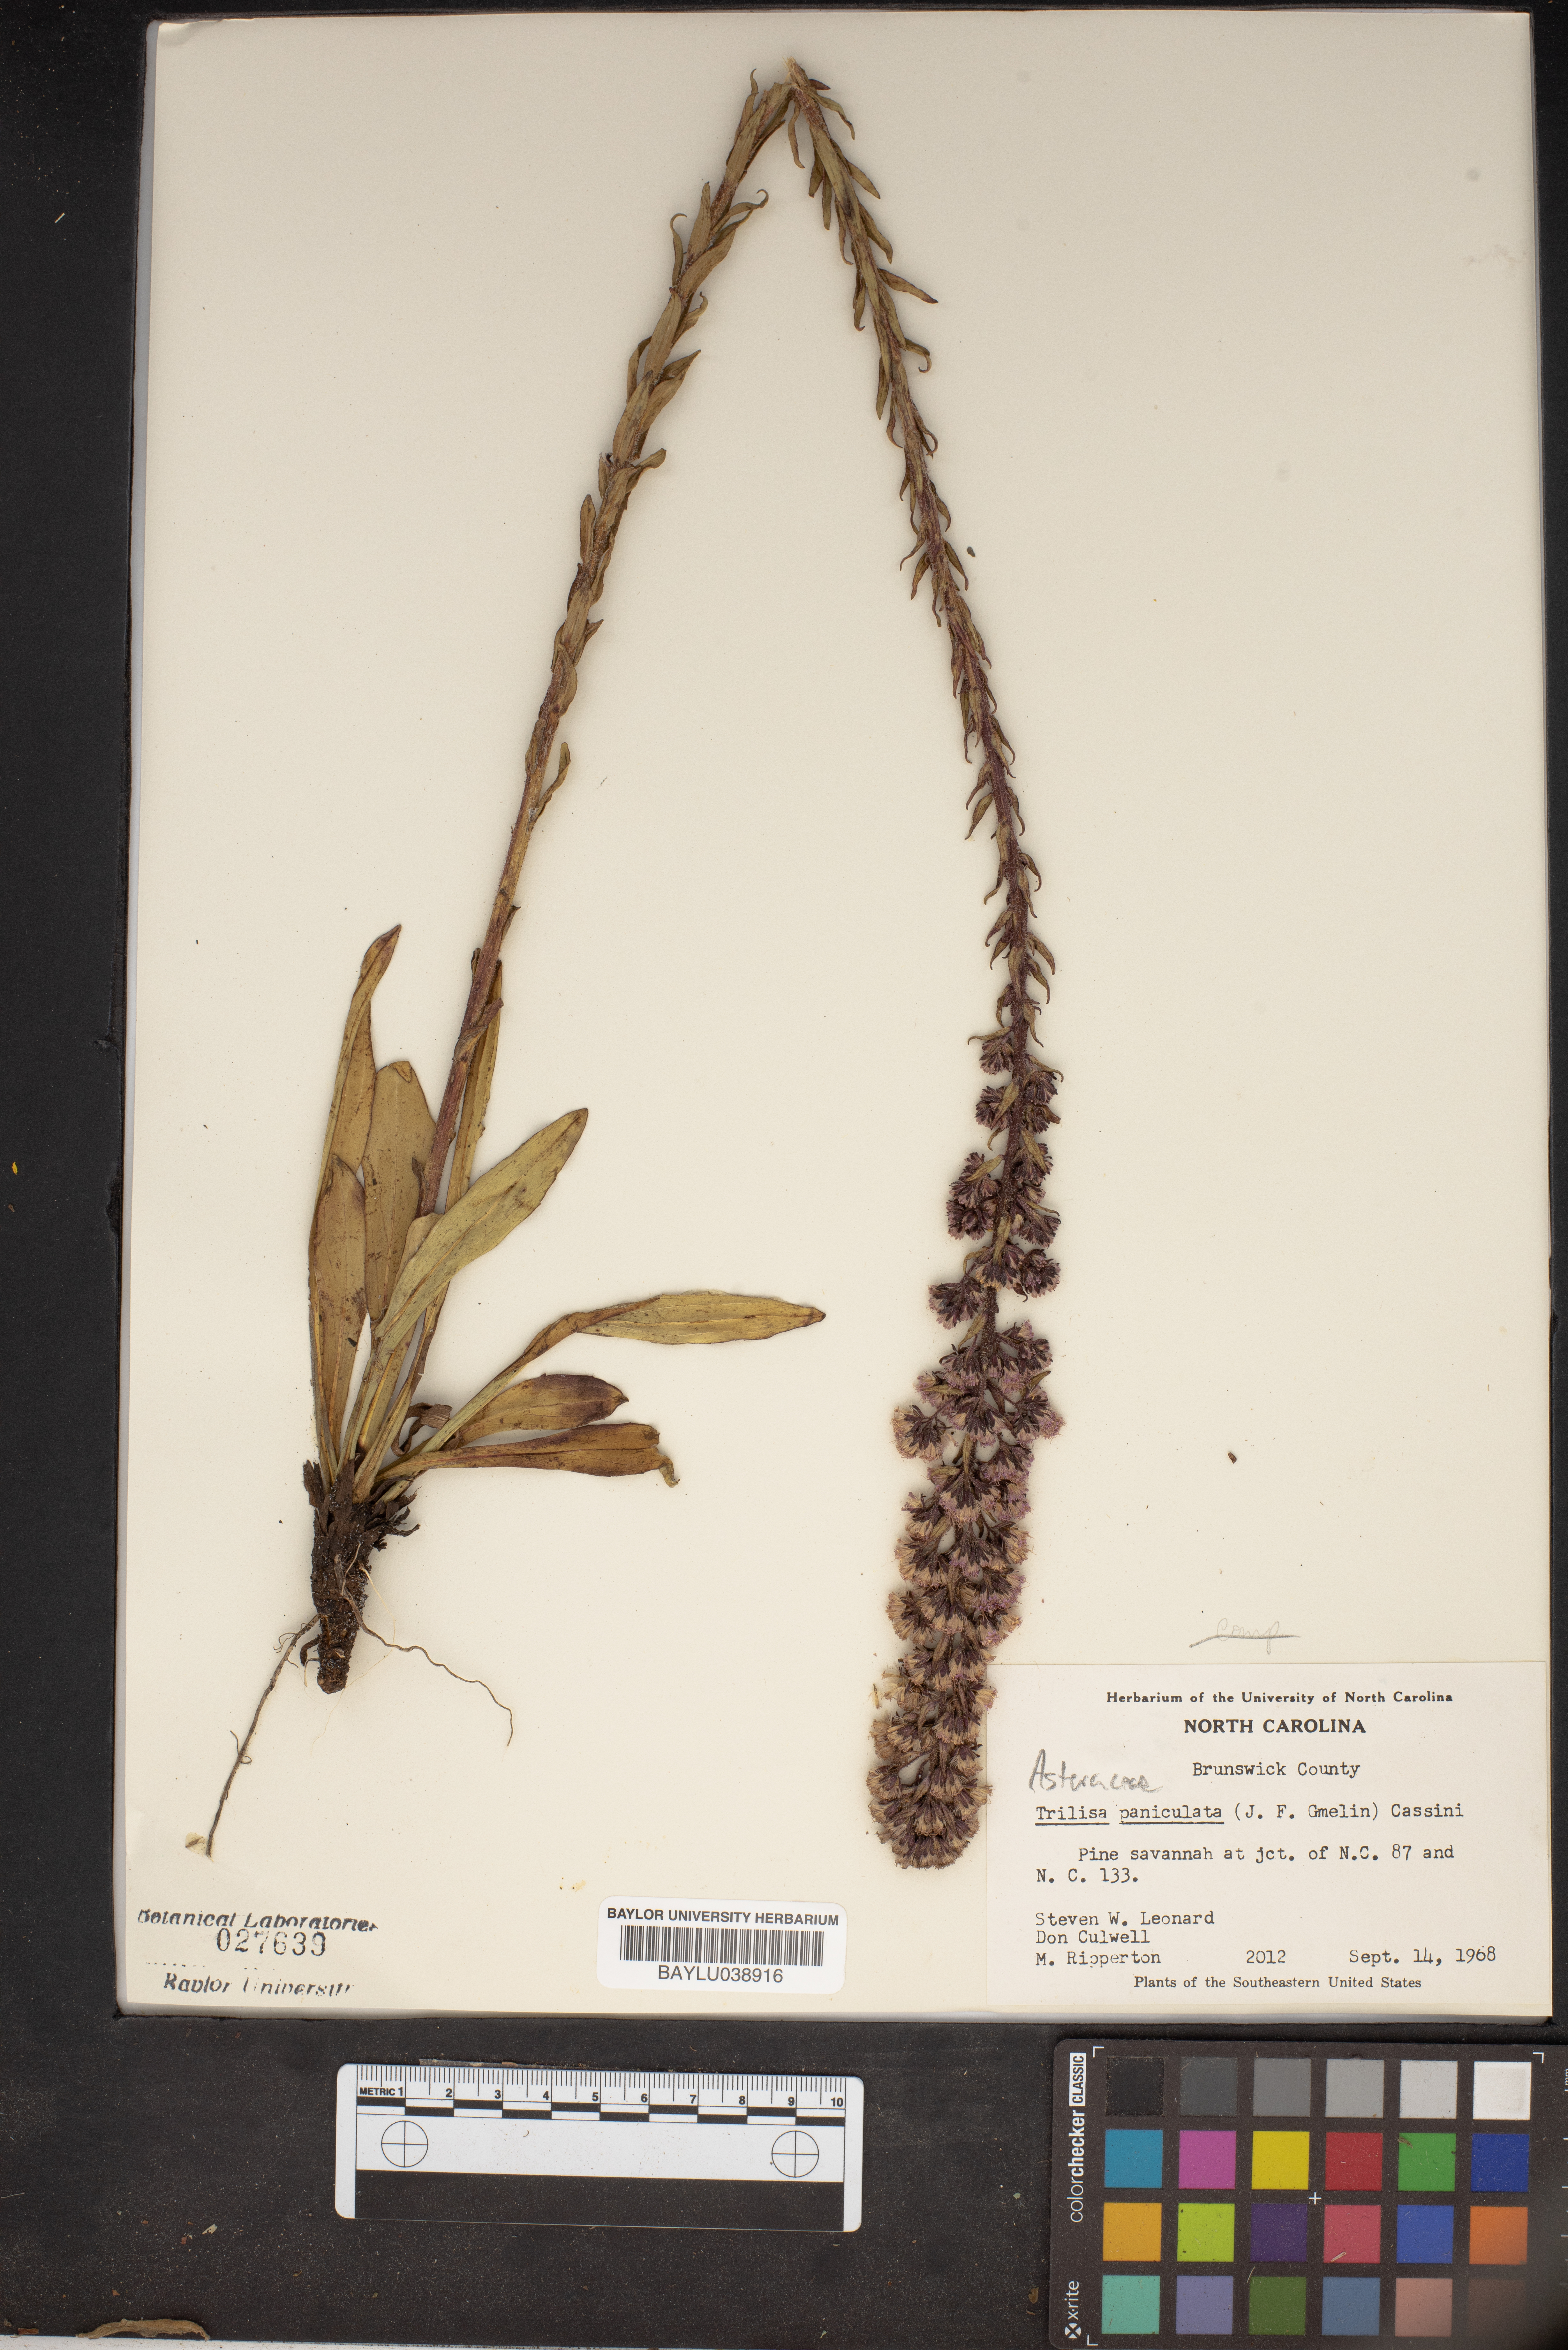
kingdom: Plantae
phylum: Tracheophyta
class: Magnoliopsida
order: Asterales
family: Asteraceae
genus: Carphephorus
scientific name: Carphephorus paniculatus
